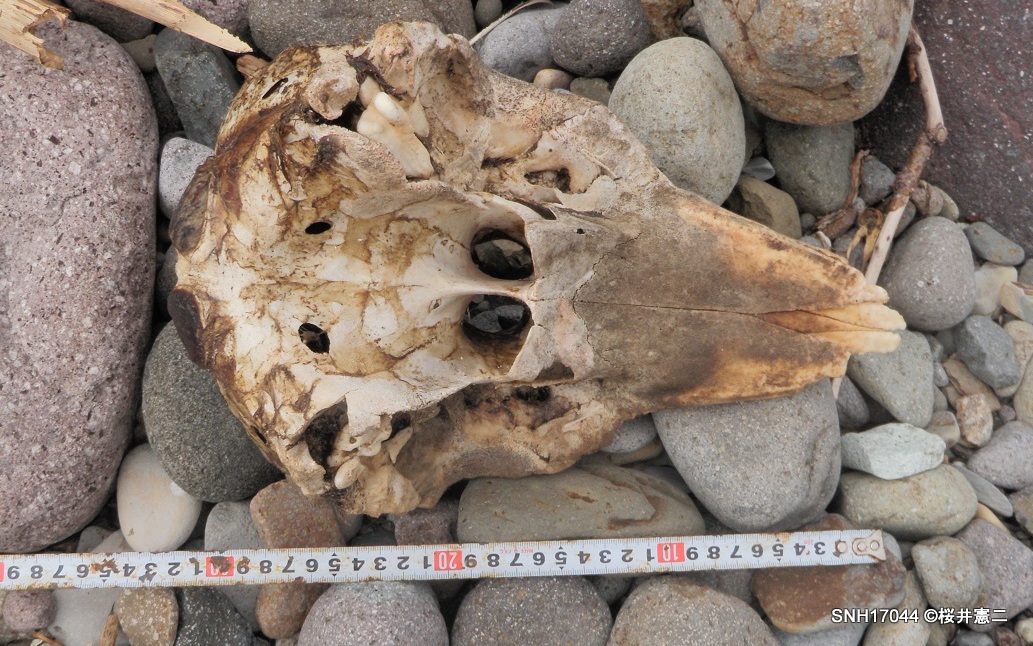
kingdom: Animalia
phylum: Chordata
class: Mammalia
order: Cetacea
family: Phocoenidae
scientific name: Phocoenidae
